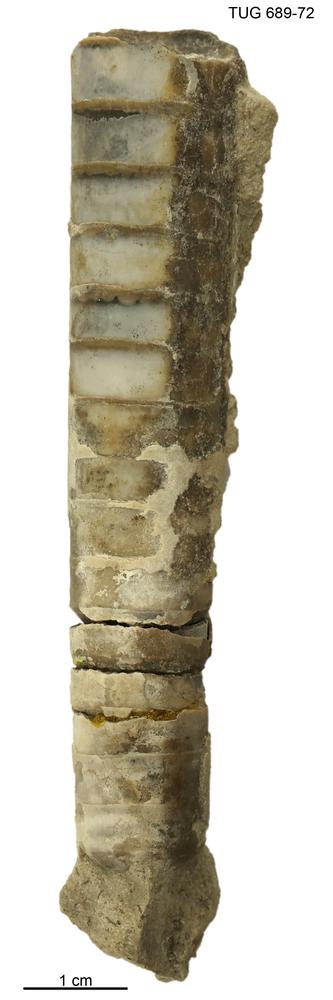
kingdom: Animalia
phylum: Mollusca
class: Cephalopoda
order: Orthocerida
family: Orthoceratidae
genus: Orthoceras
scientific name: Orthoceras
